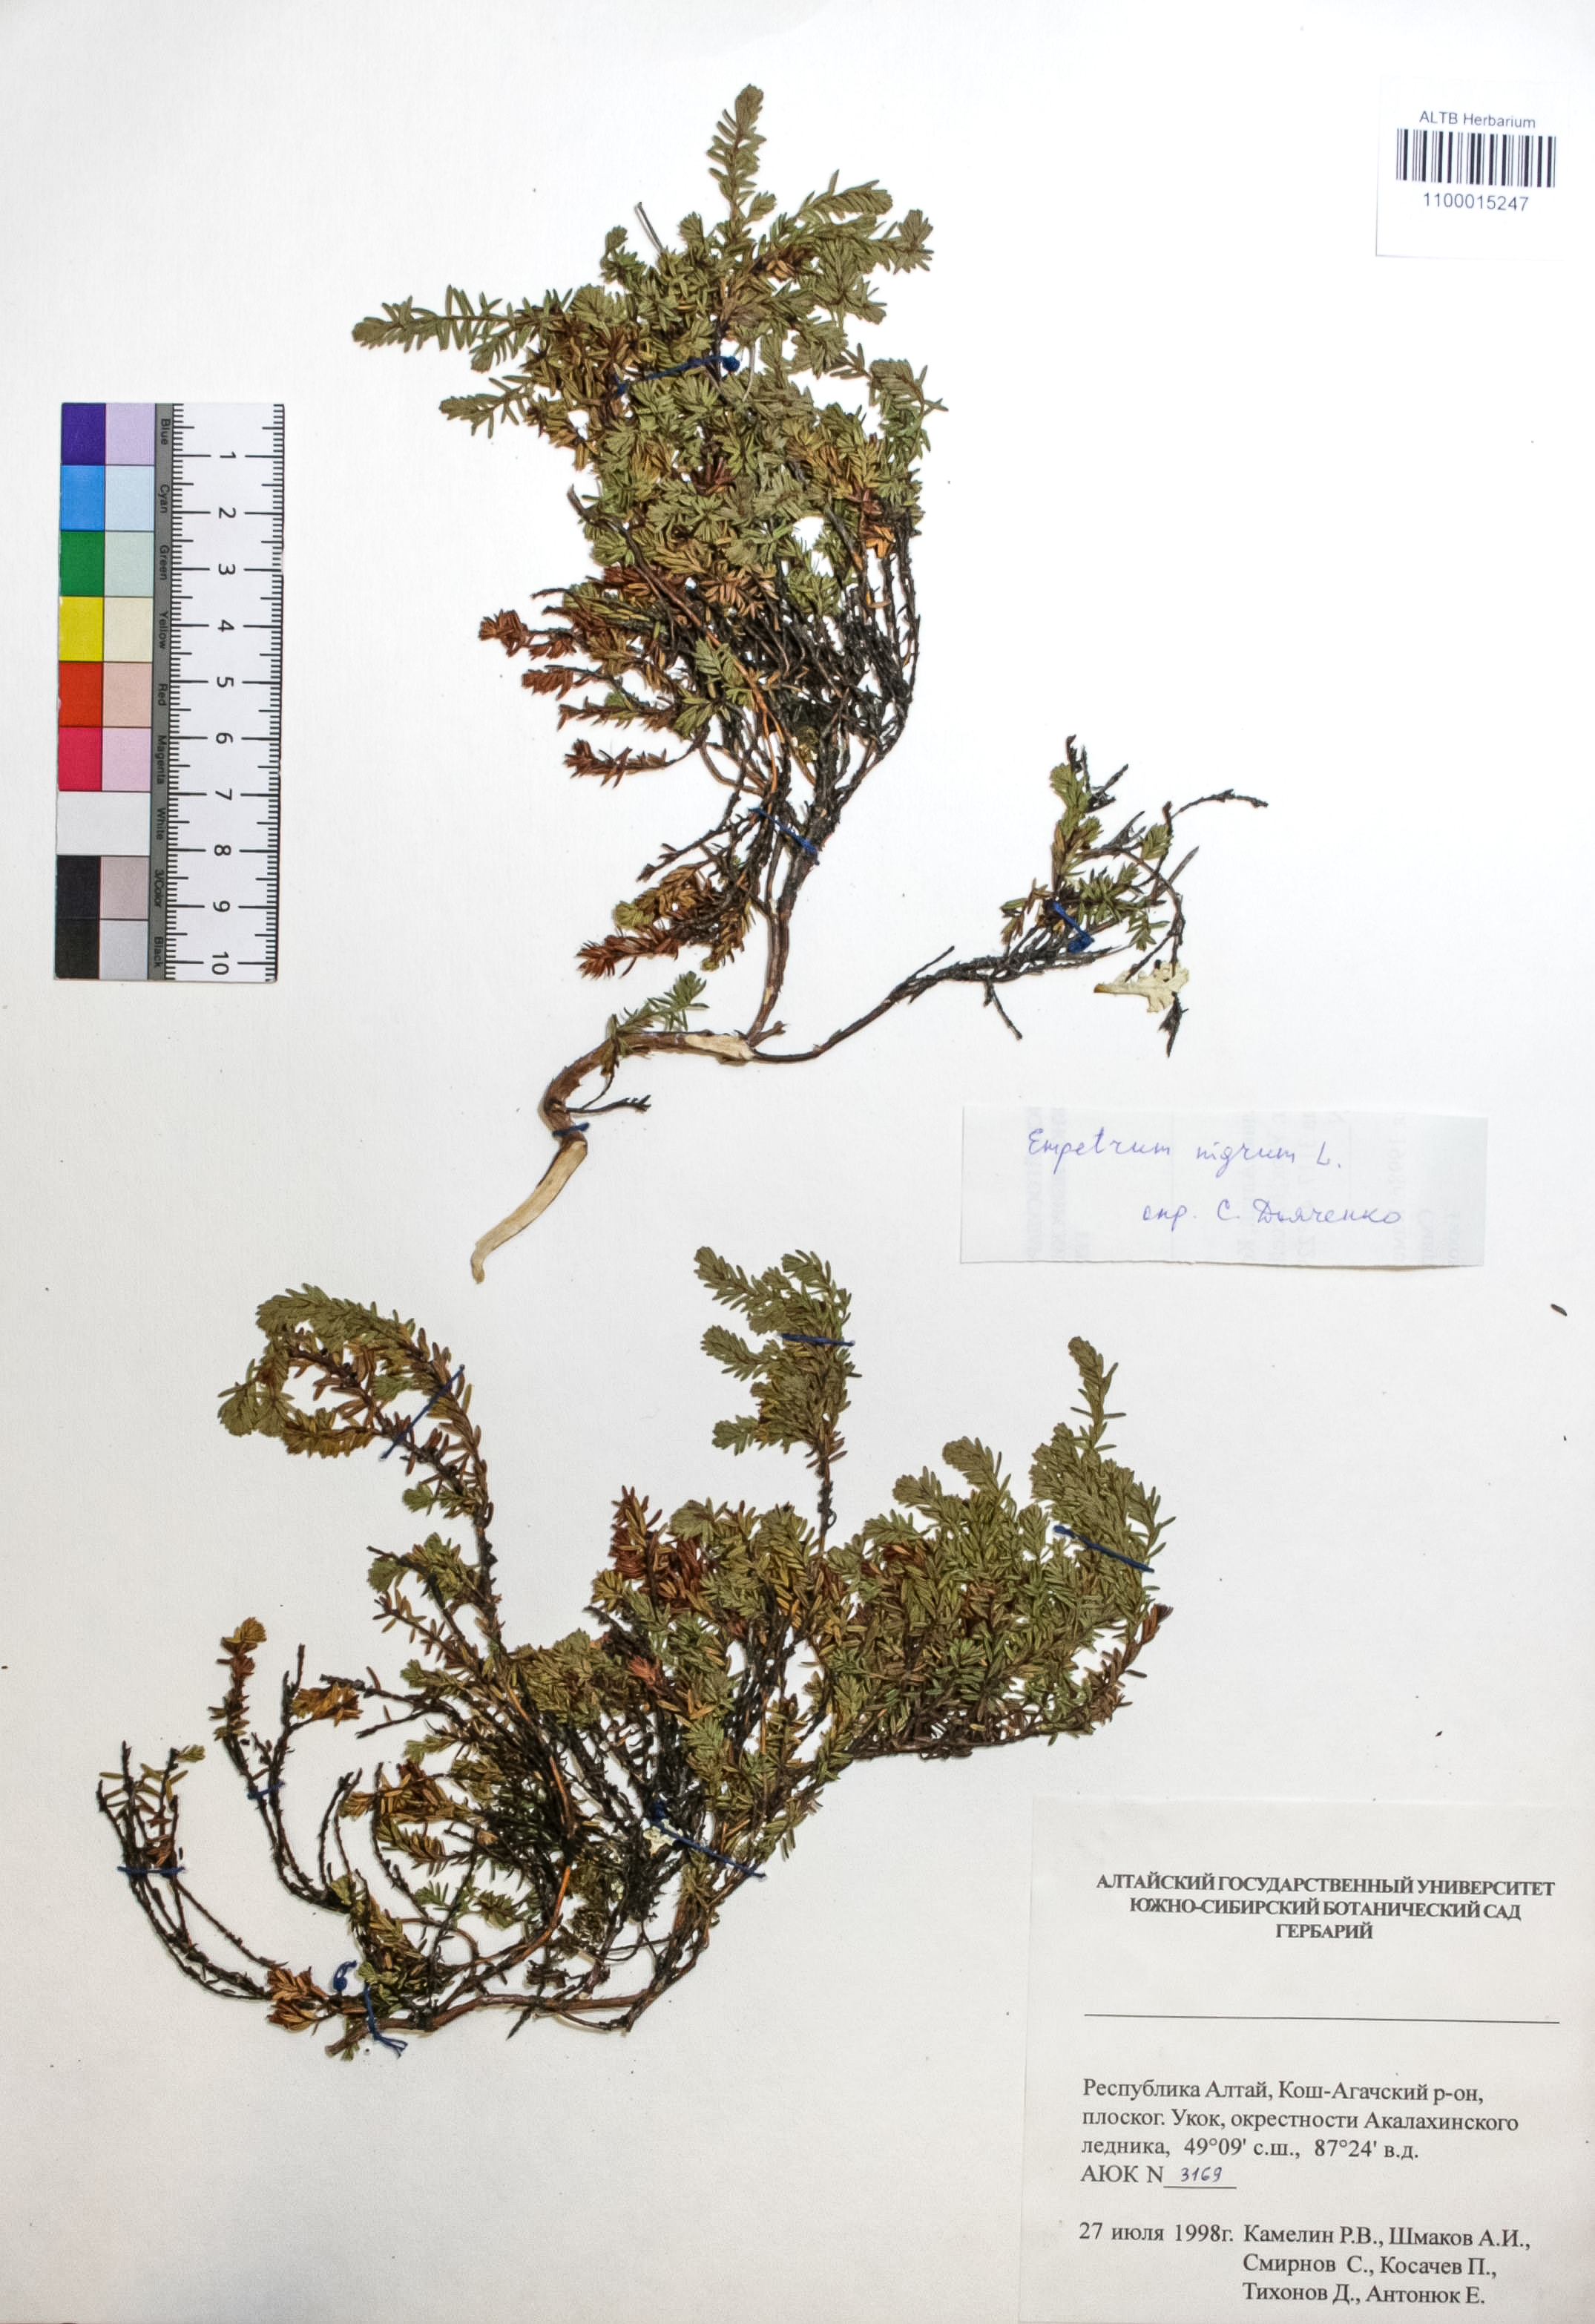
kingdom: Plantae
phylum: Tracheophyta
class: Magnoliopsida
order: Ericales
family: Ericaceae
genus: Empetrum
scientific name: Empetrum nigrum
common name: Black crowberry
